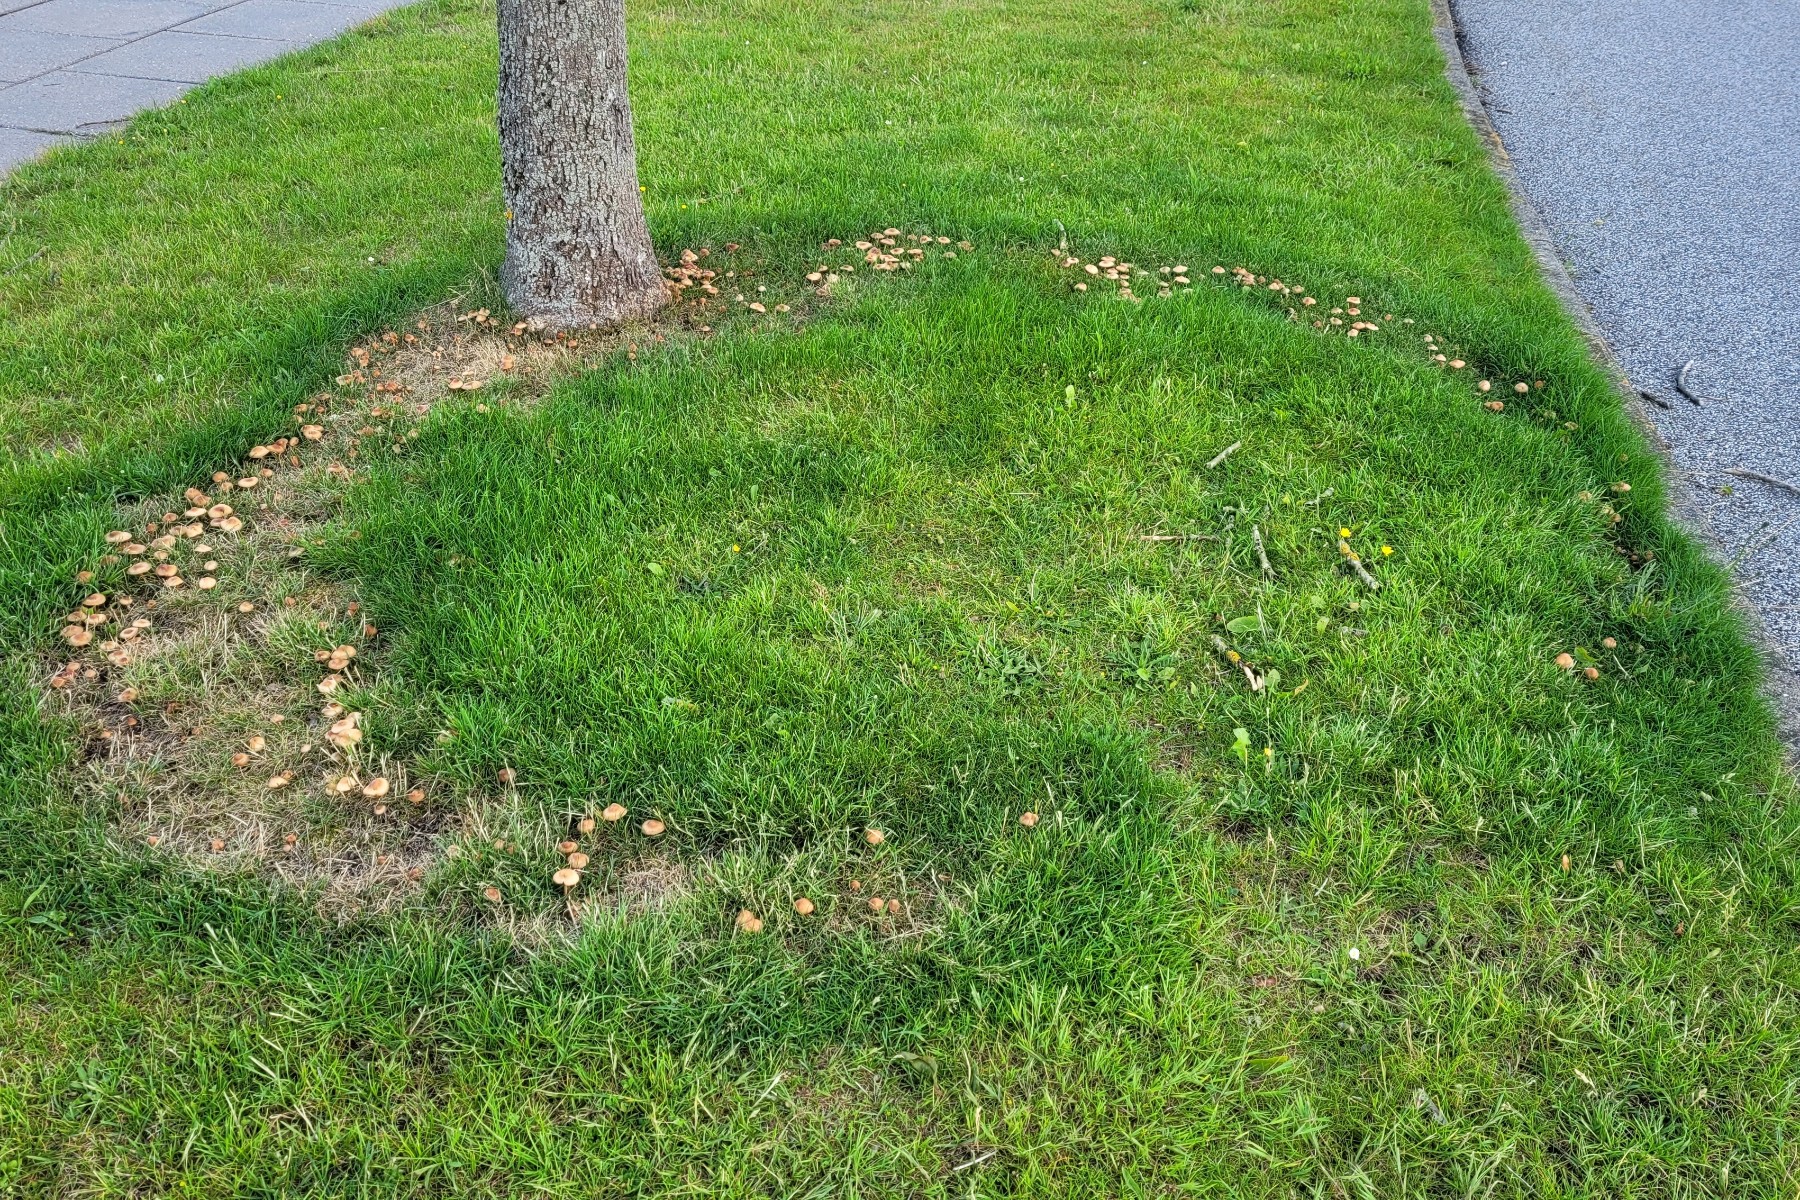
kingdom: Fungi
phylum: Basidiomycota
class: Agaricomycetes
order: Agaricales
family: Marasmiaceae
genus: Marasmius
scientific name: Marasmius oreades
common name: elledans-bruskhat
